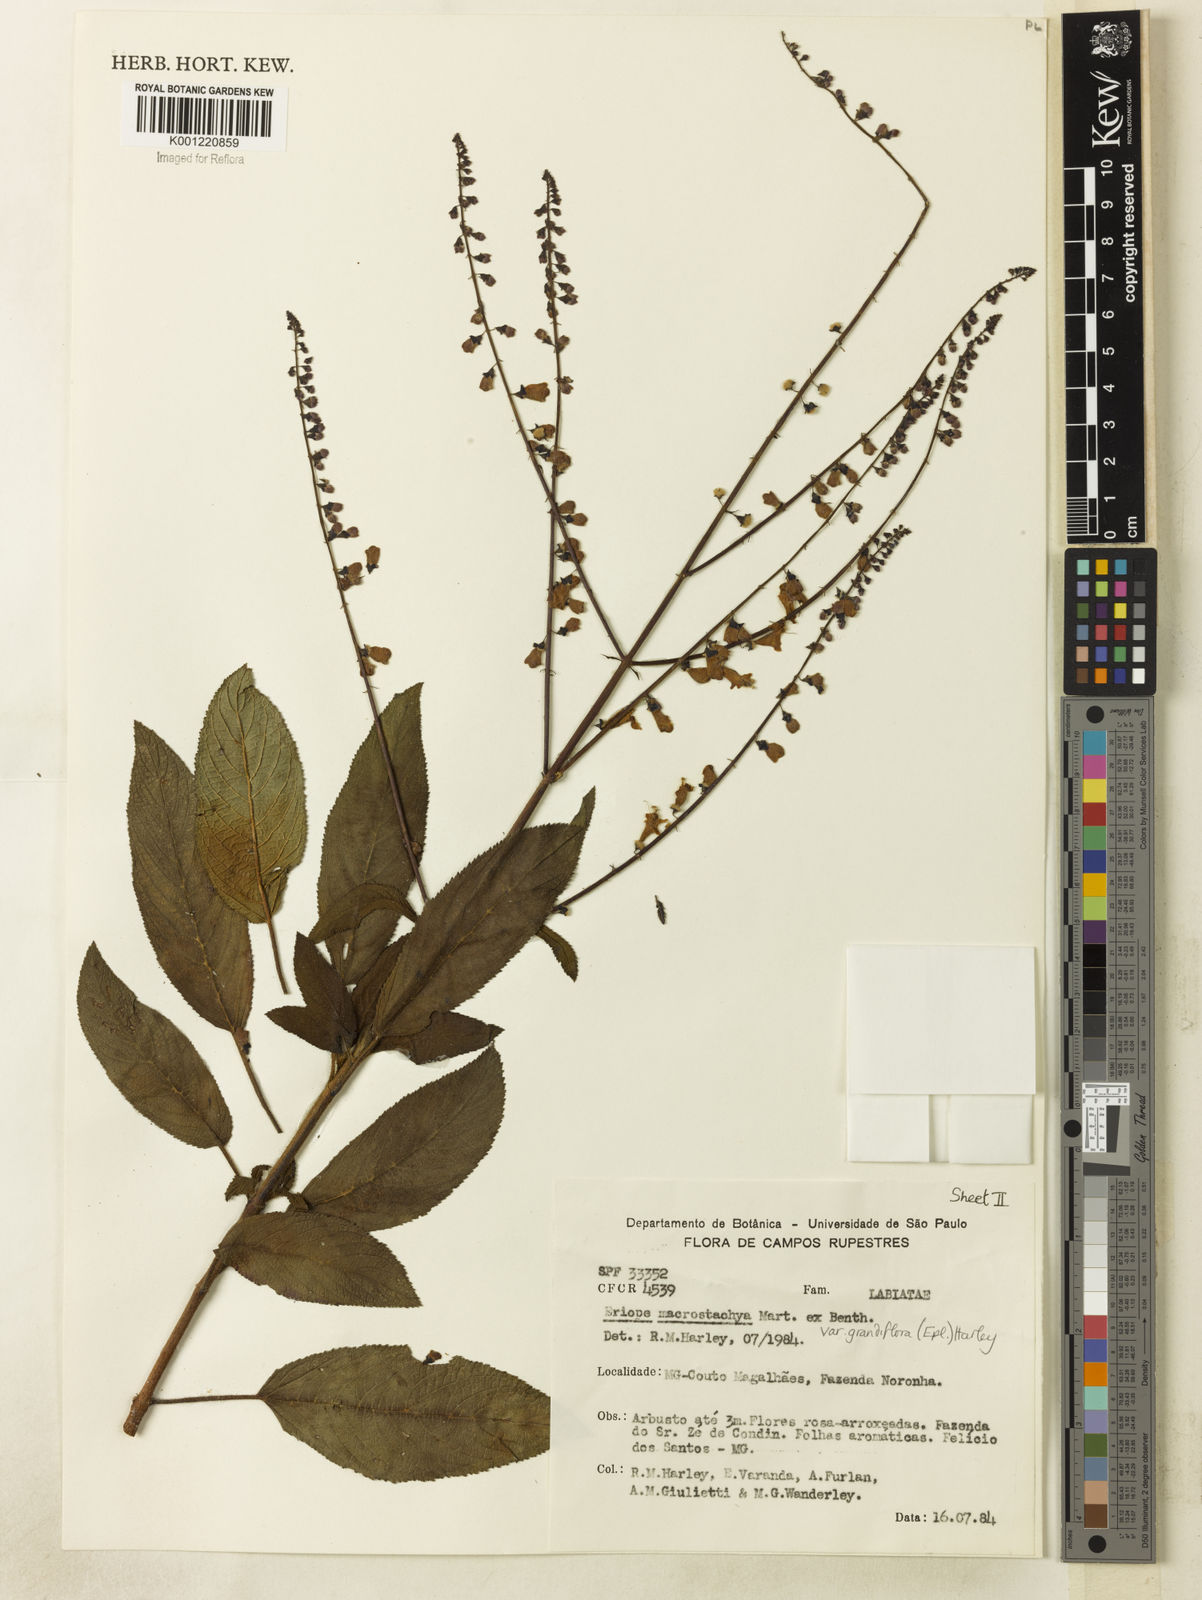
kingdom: Plantae
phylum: Tracheophyta
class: Magnoliopsida
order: Lamiales
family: Lamiaceae
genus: Eriope
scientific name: Eriope macrostachya
